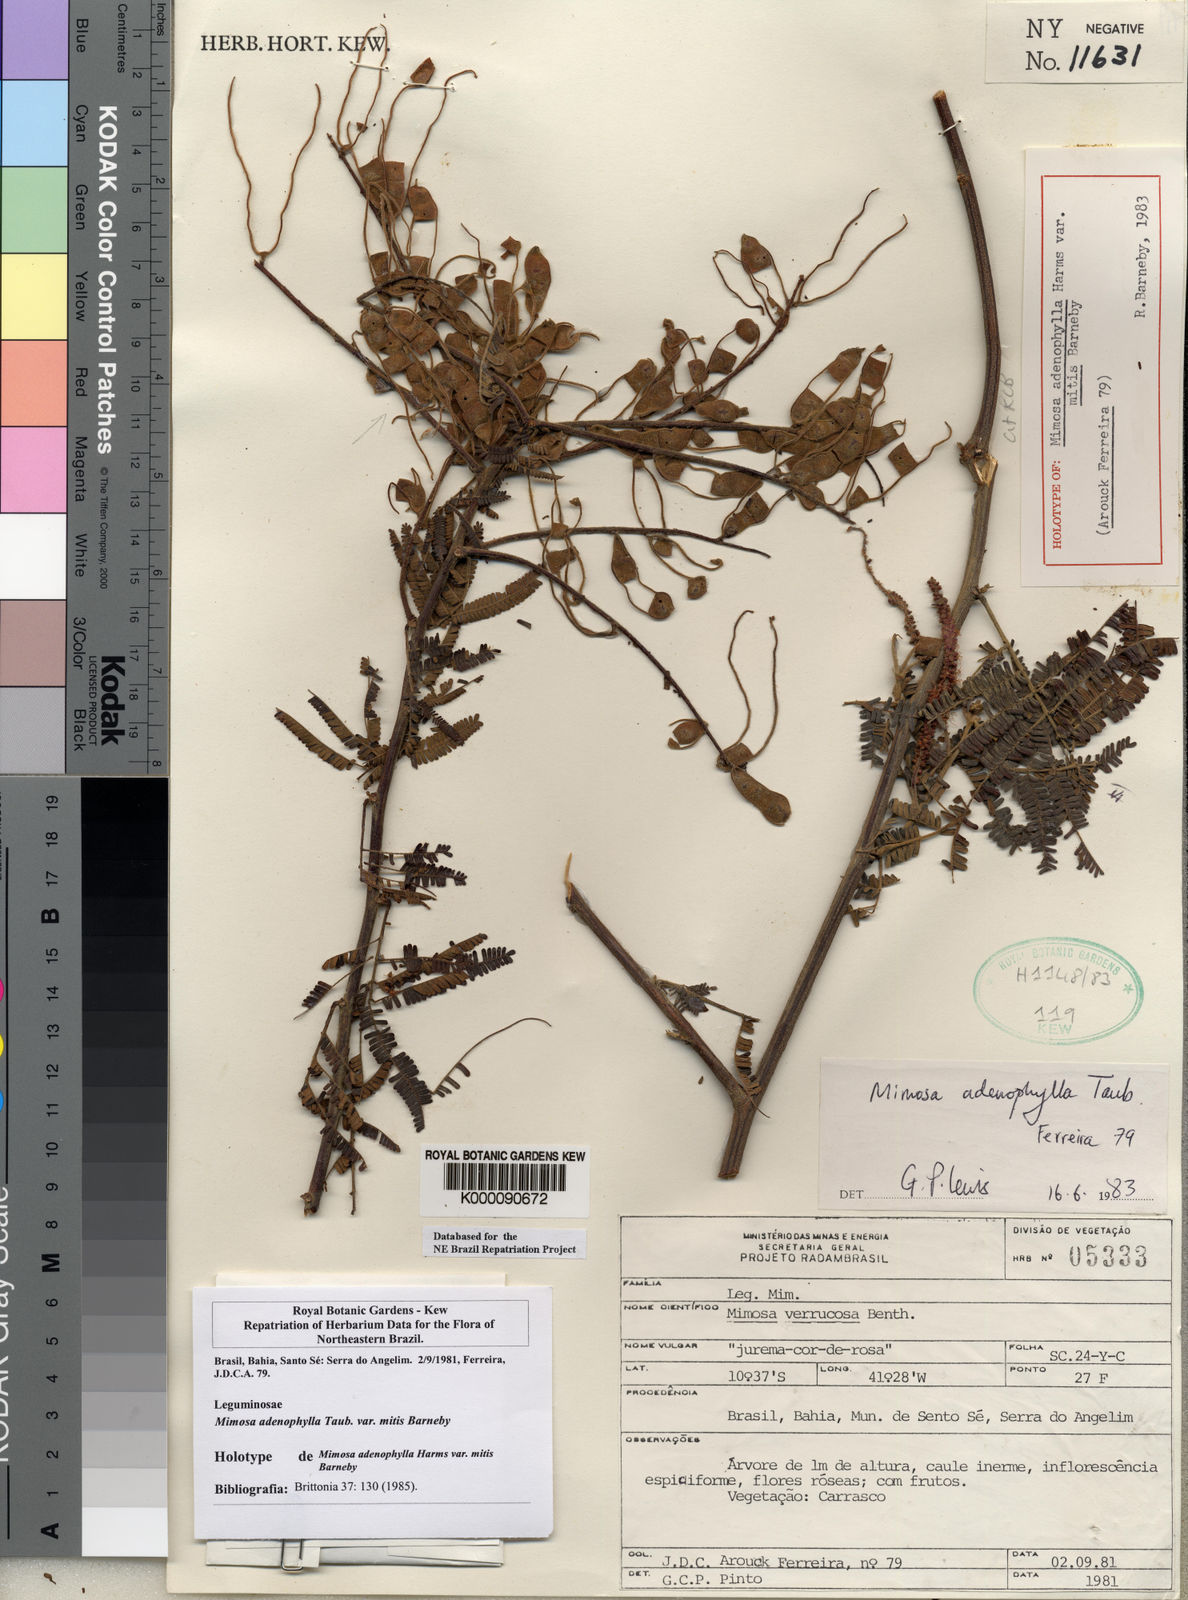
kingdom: Plantae
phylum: Tracheophyta
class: Magnoliopsida
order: Fabales
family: Fabaceae
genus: Mimosa
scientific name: Mimosa pteridifolia
